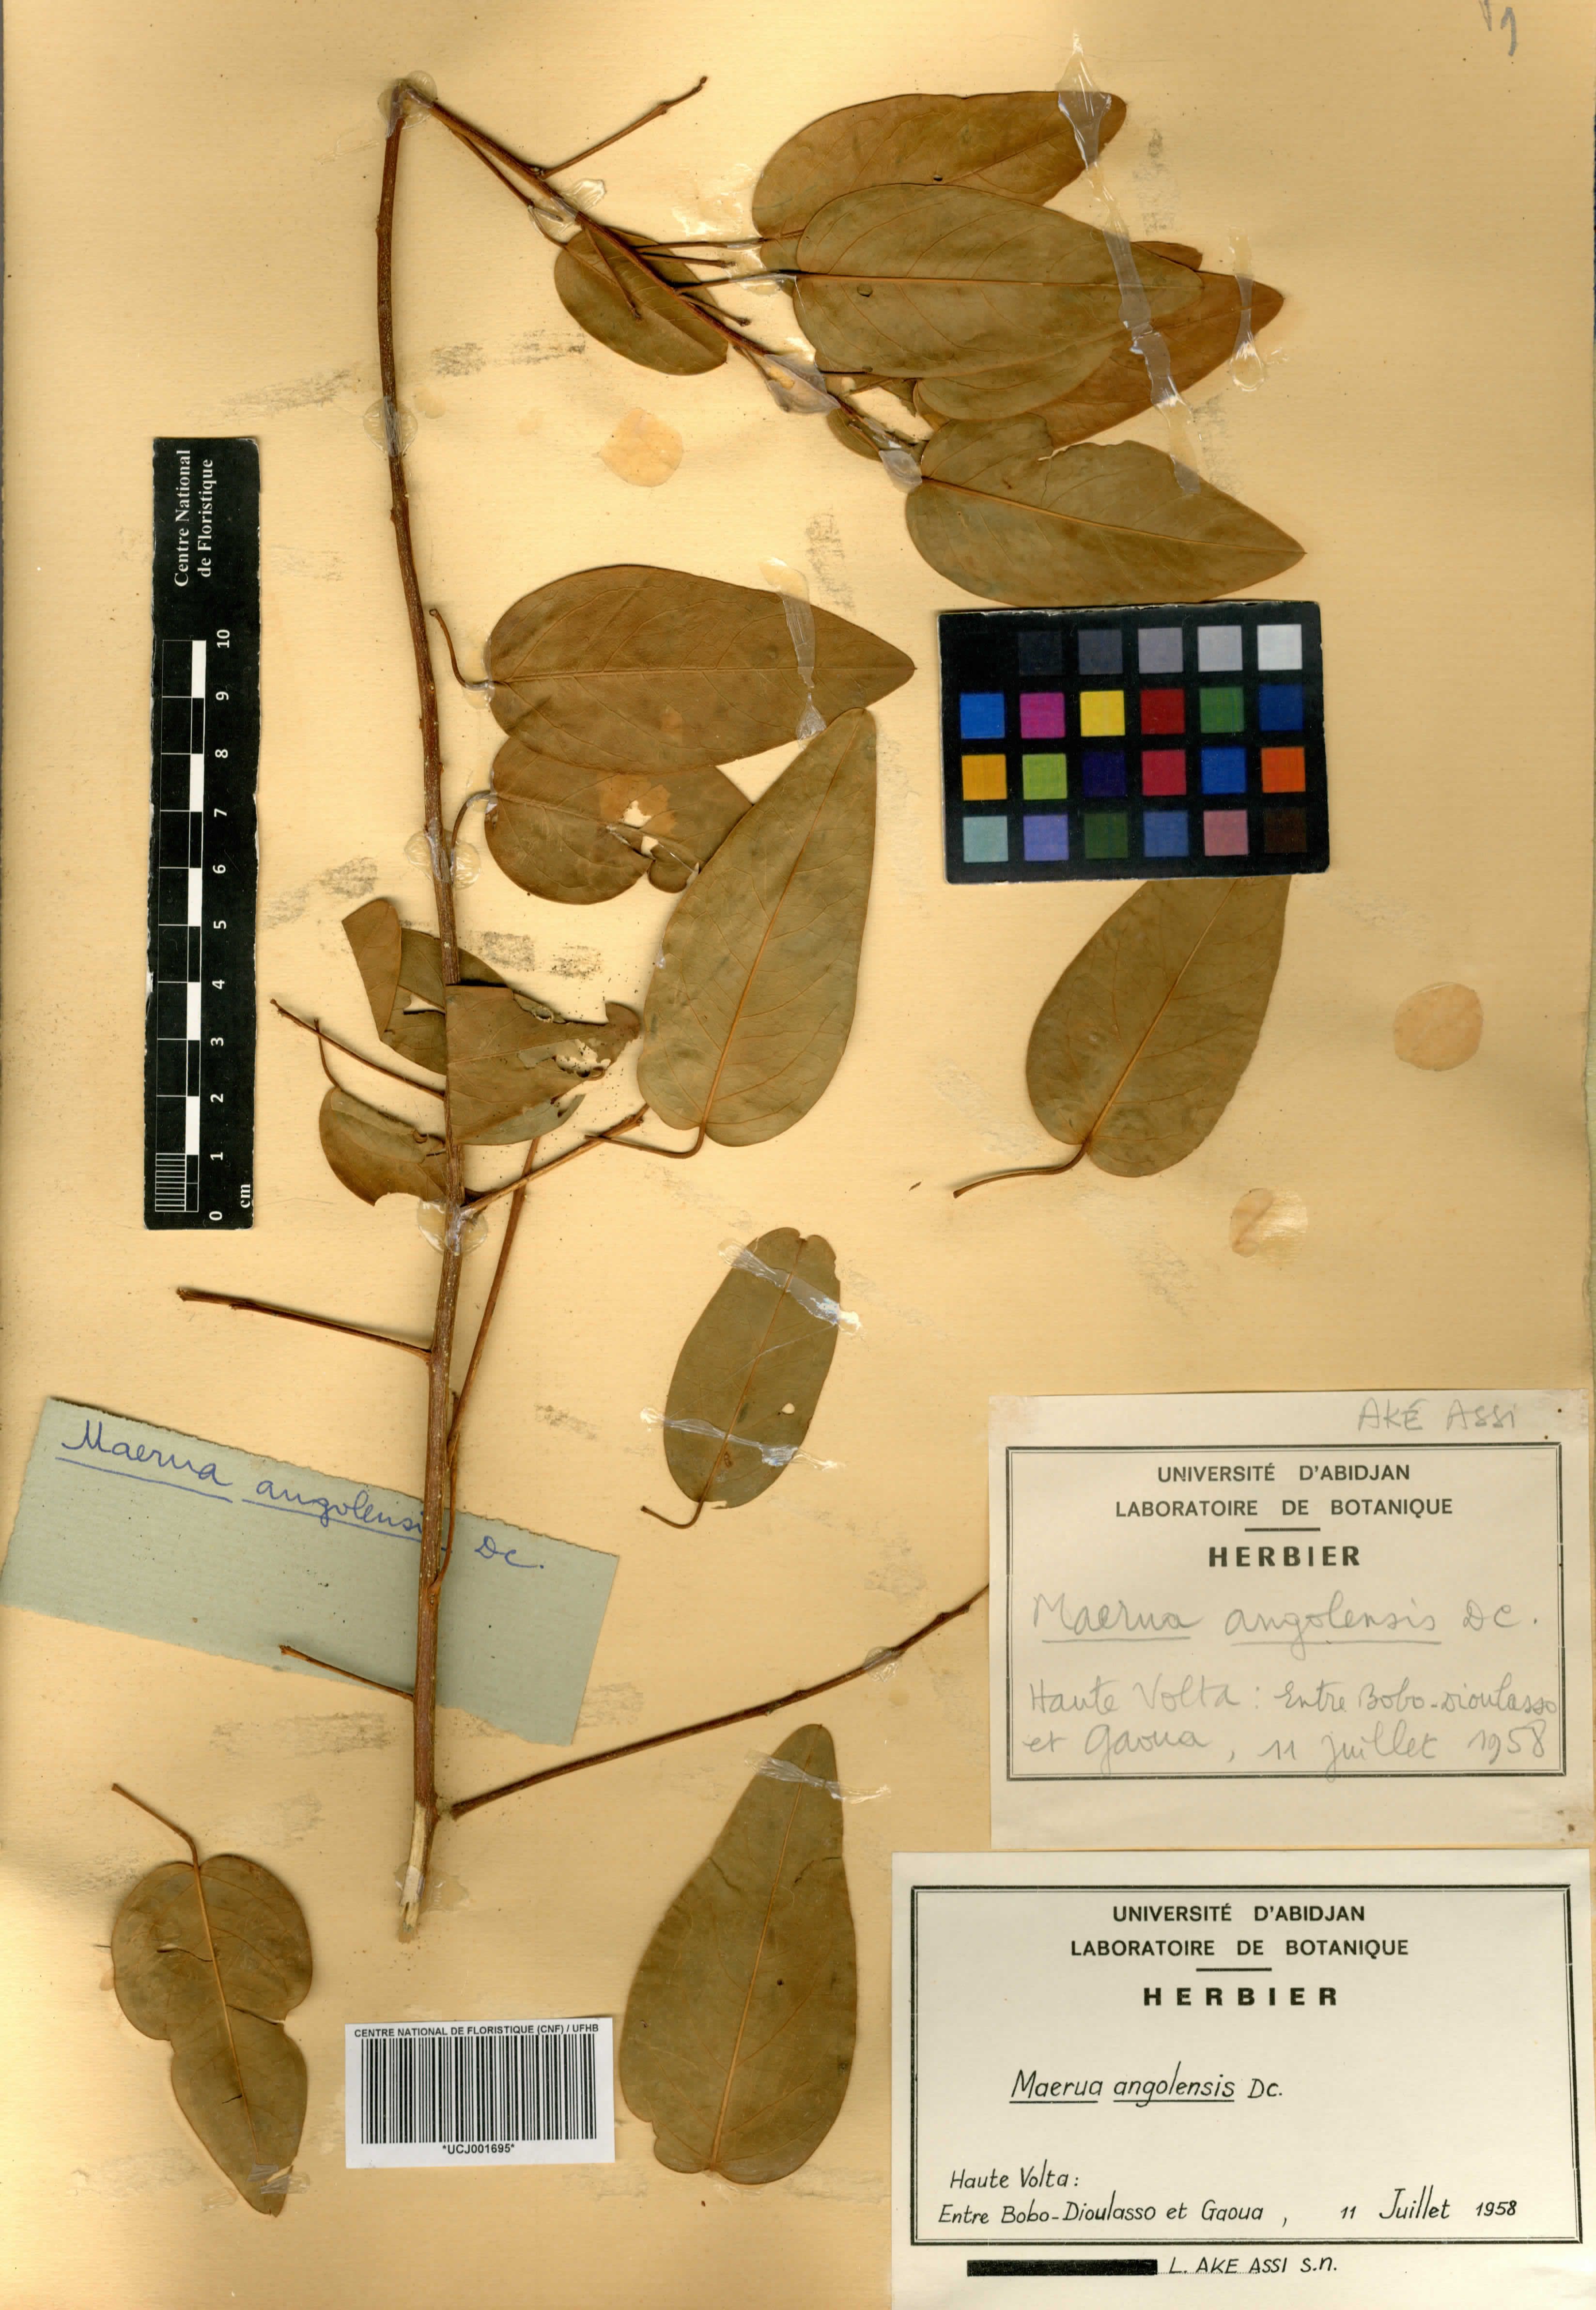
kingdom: Plantae
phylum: Tracheophyta
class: Magnoliopsida
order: Brassicales
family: Capparaceae
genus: Maerua
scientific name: Maerua angolensis
